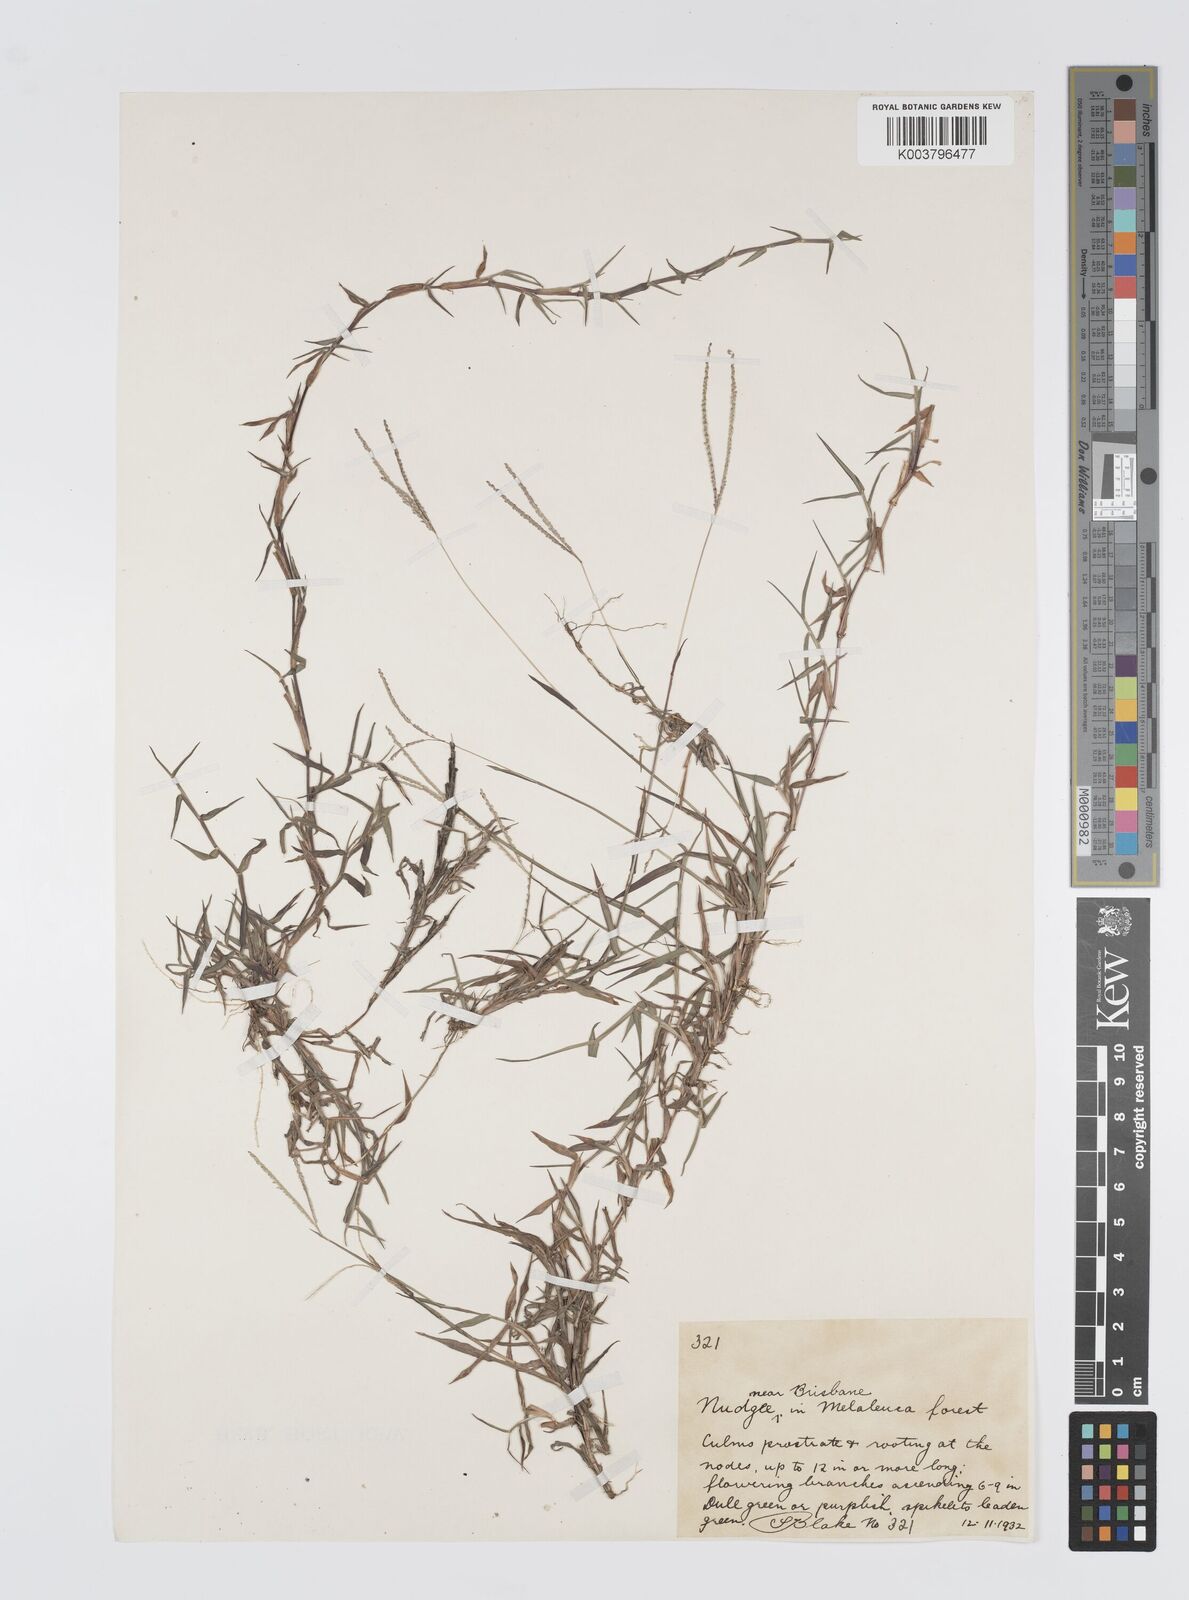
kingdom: Plantae
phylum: Tracheophyta
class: Liliopsida
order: Poales
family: Poaceae
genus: Digitaria
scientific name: Digitaria longiflora
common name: Wire crabgrass
